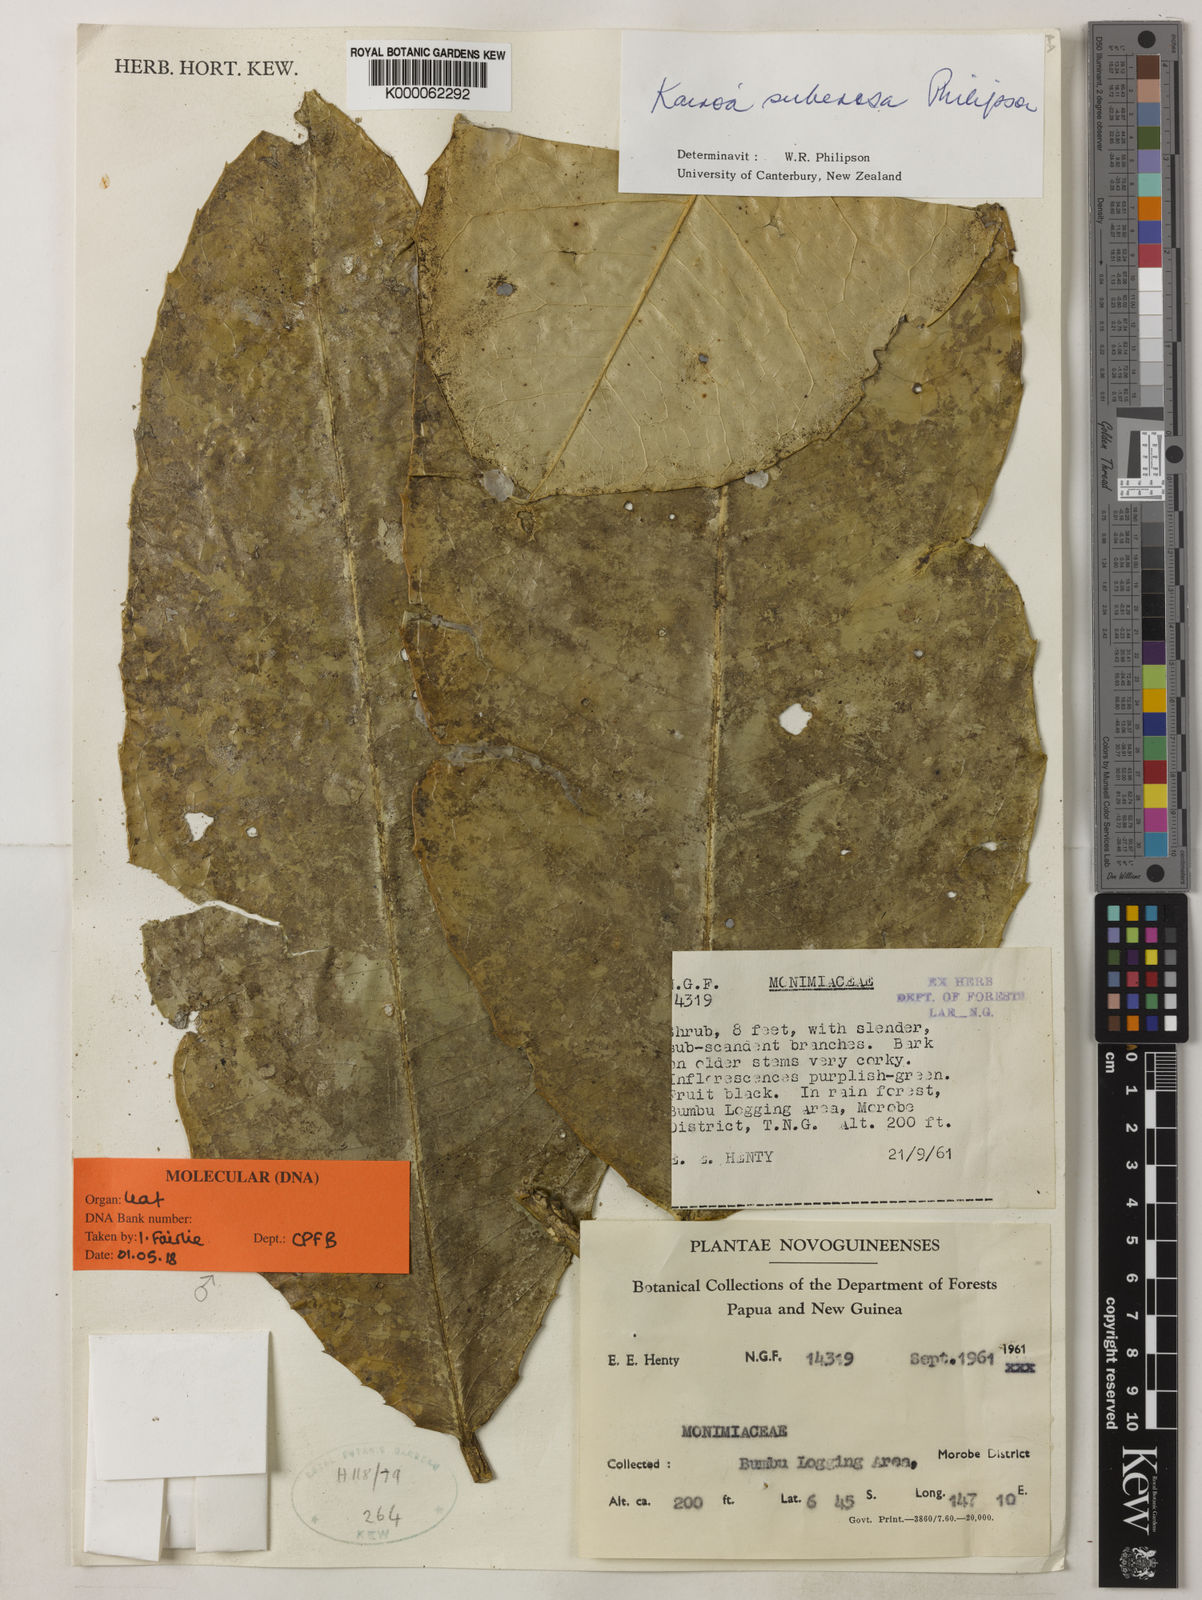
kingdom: Plantae
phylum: Tracheophyta
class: Magnoliopsida
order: Laurales
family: Monimiaceae
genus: Kairoa
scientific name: Kairoa suberosa
